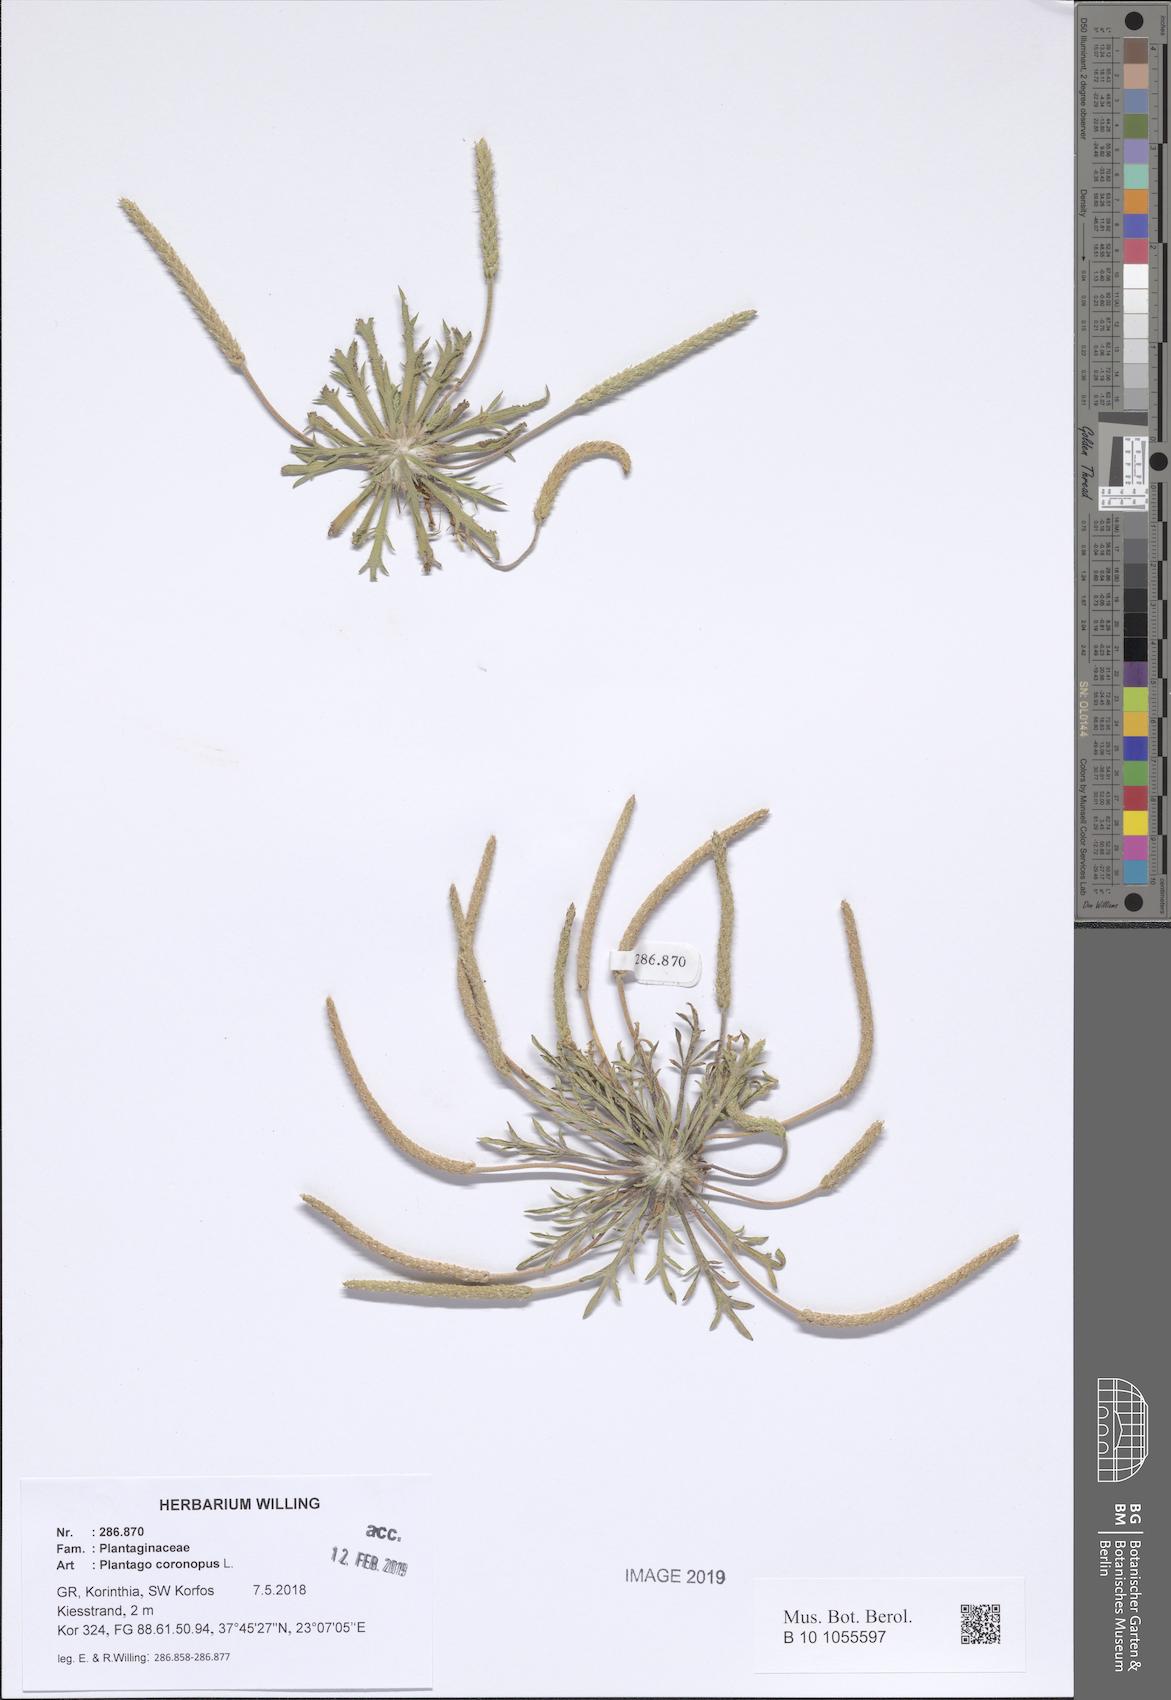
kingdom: Plantae
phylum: Tracheophyta
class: Magnoliopsida
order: Lamiales
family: Plantaginaceae
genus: Plantago
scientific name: Plantago coronopus
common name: Buck's-horn plantain
